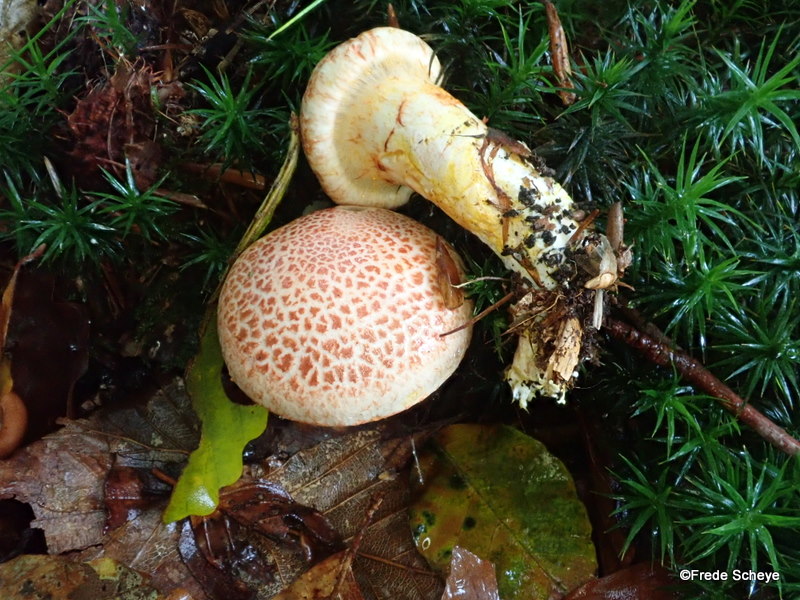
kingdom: Fungi
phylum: Basidiomycota
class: Agaricomycetes
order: Agaricales
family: Cortinariaceae
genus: Cortinarius
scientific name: Cortinarius bolaris
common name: cinnoberskællet slørhat
